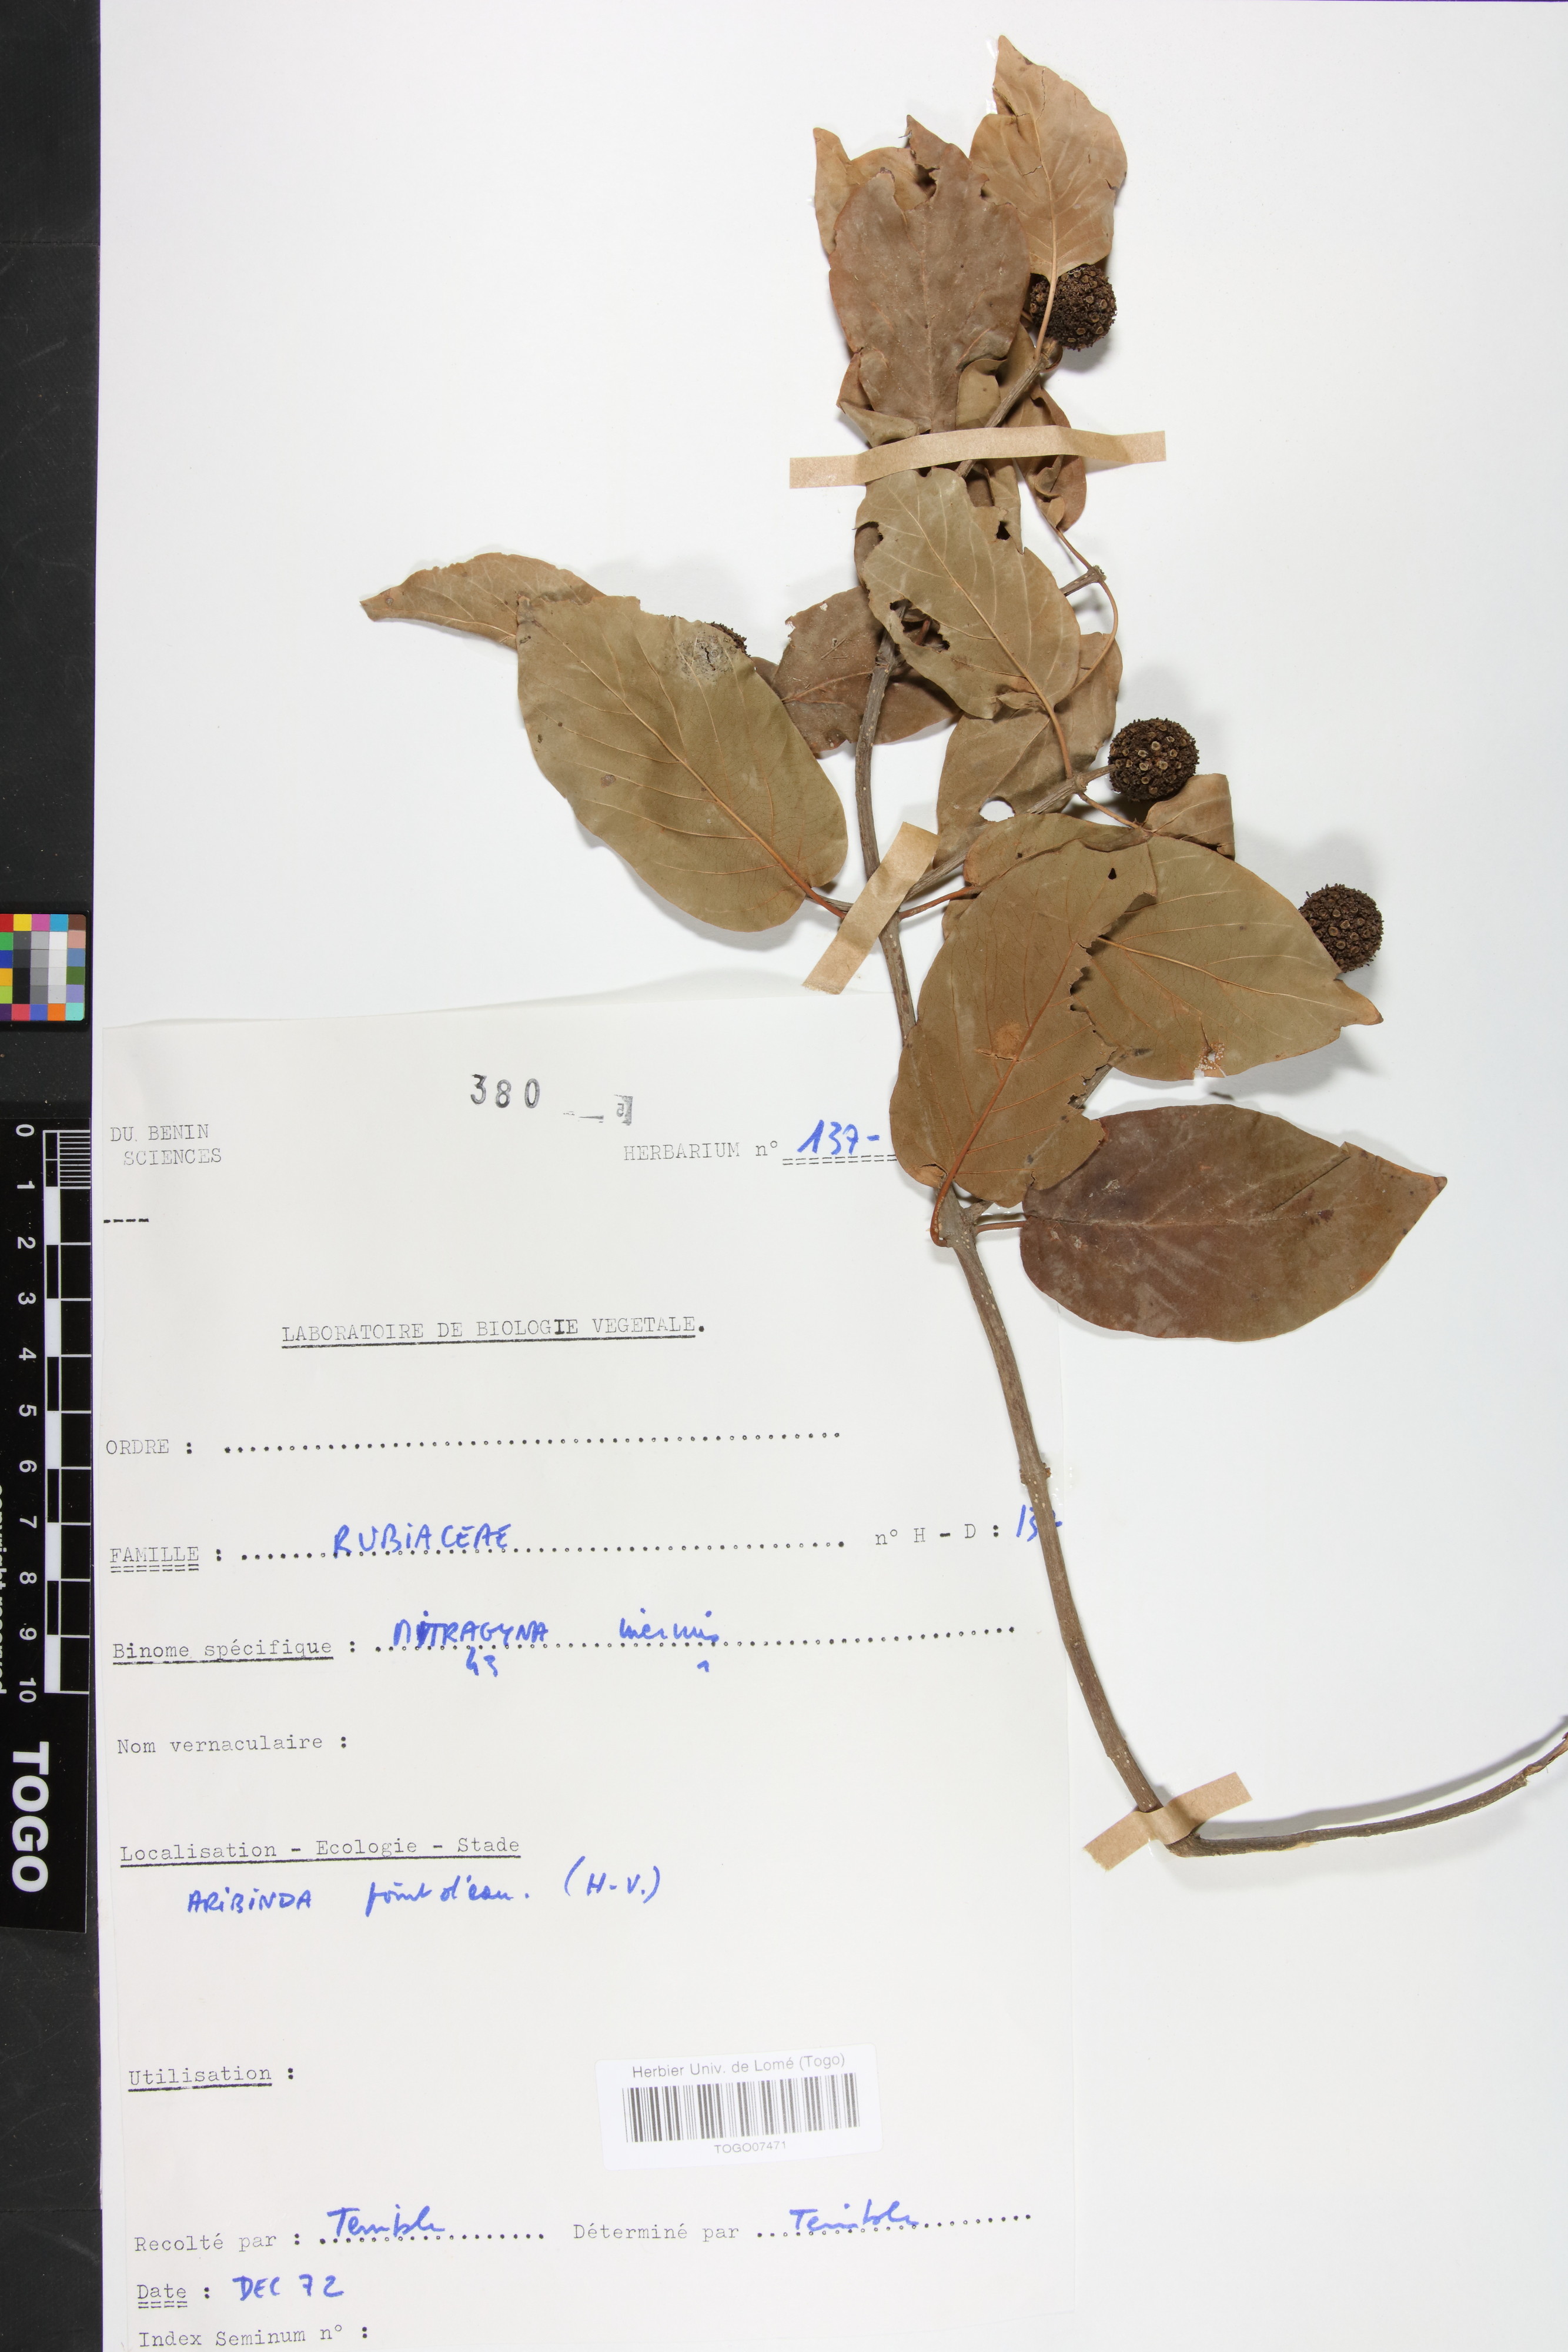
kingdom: Plantae
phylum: Tracheophyta
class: Magnoliopsida
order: Gentianales
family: Rubiaceae
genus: Mitragyna
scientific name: Mitragyna inermis
